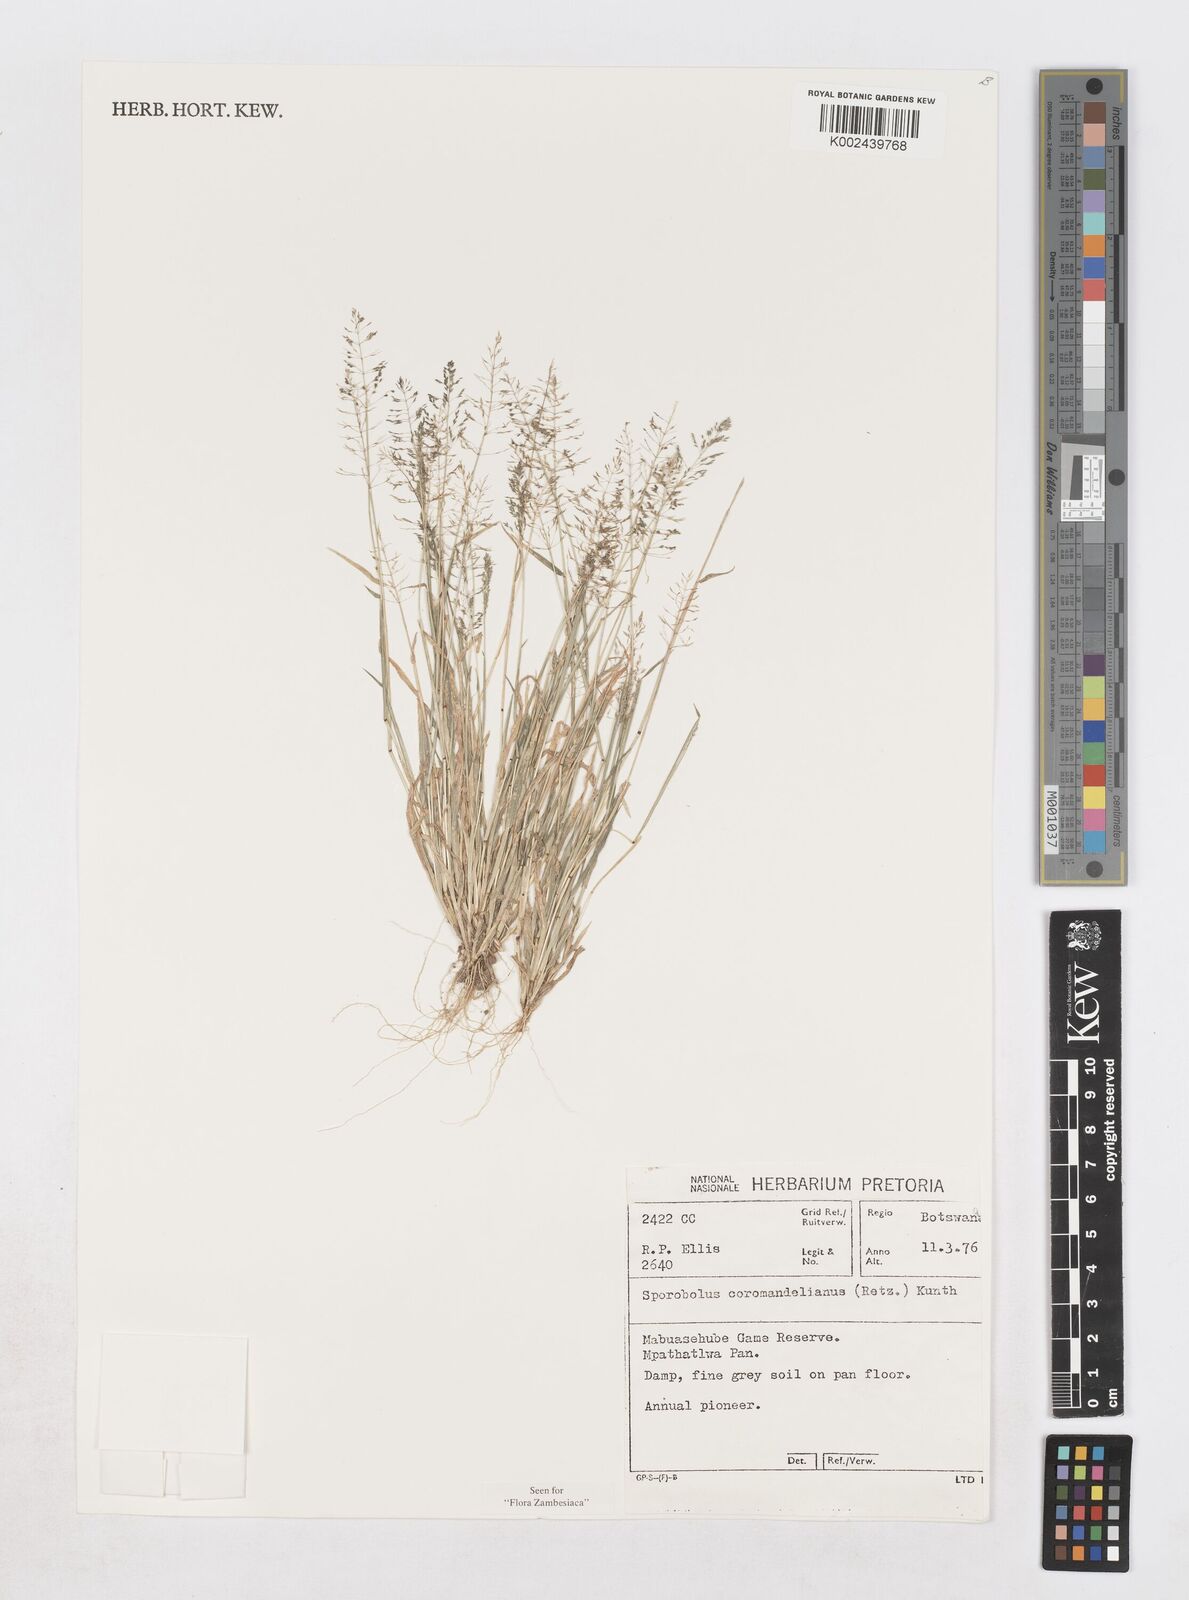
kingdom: Plantae
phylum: Tracheophyta
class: Liliopsida
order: Poales
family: Poaceae
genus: Sporobolus
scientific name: Sporobolus coromandelianus
